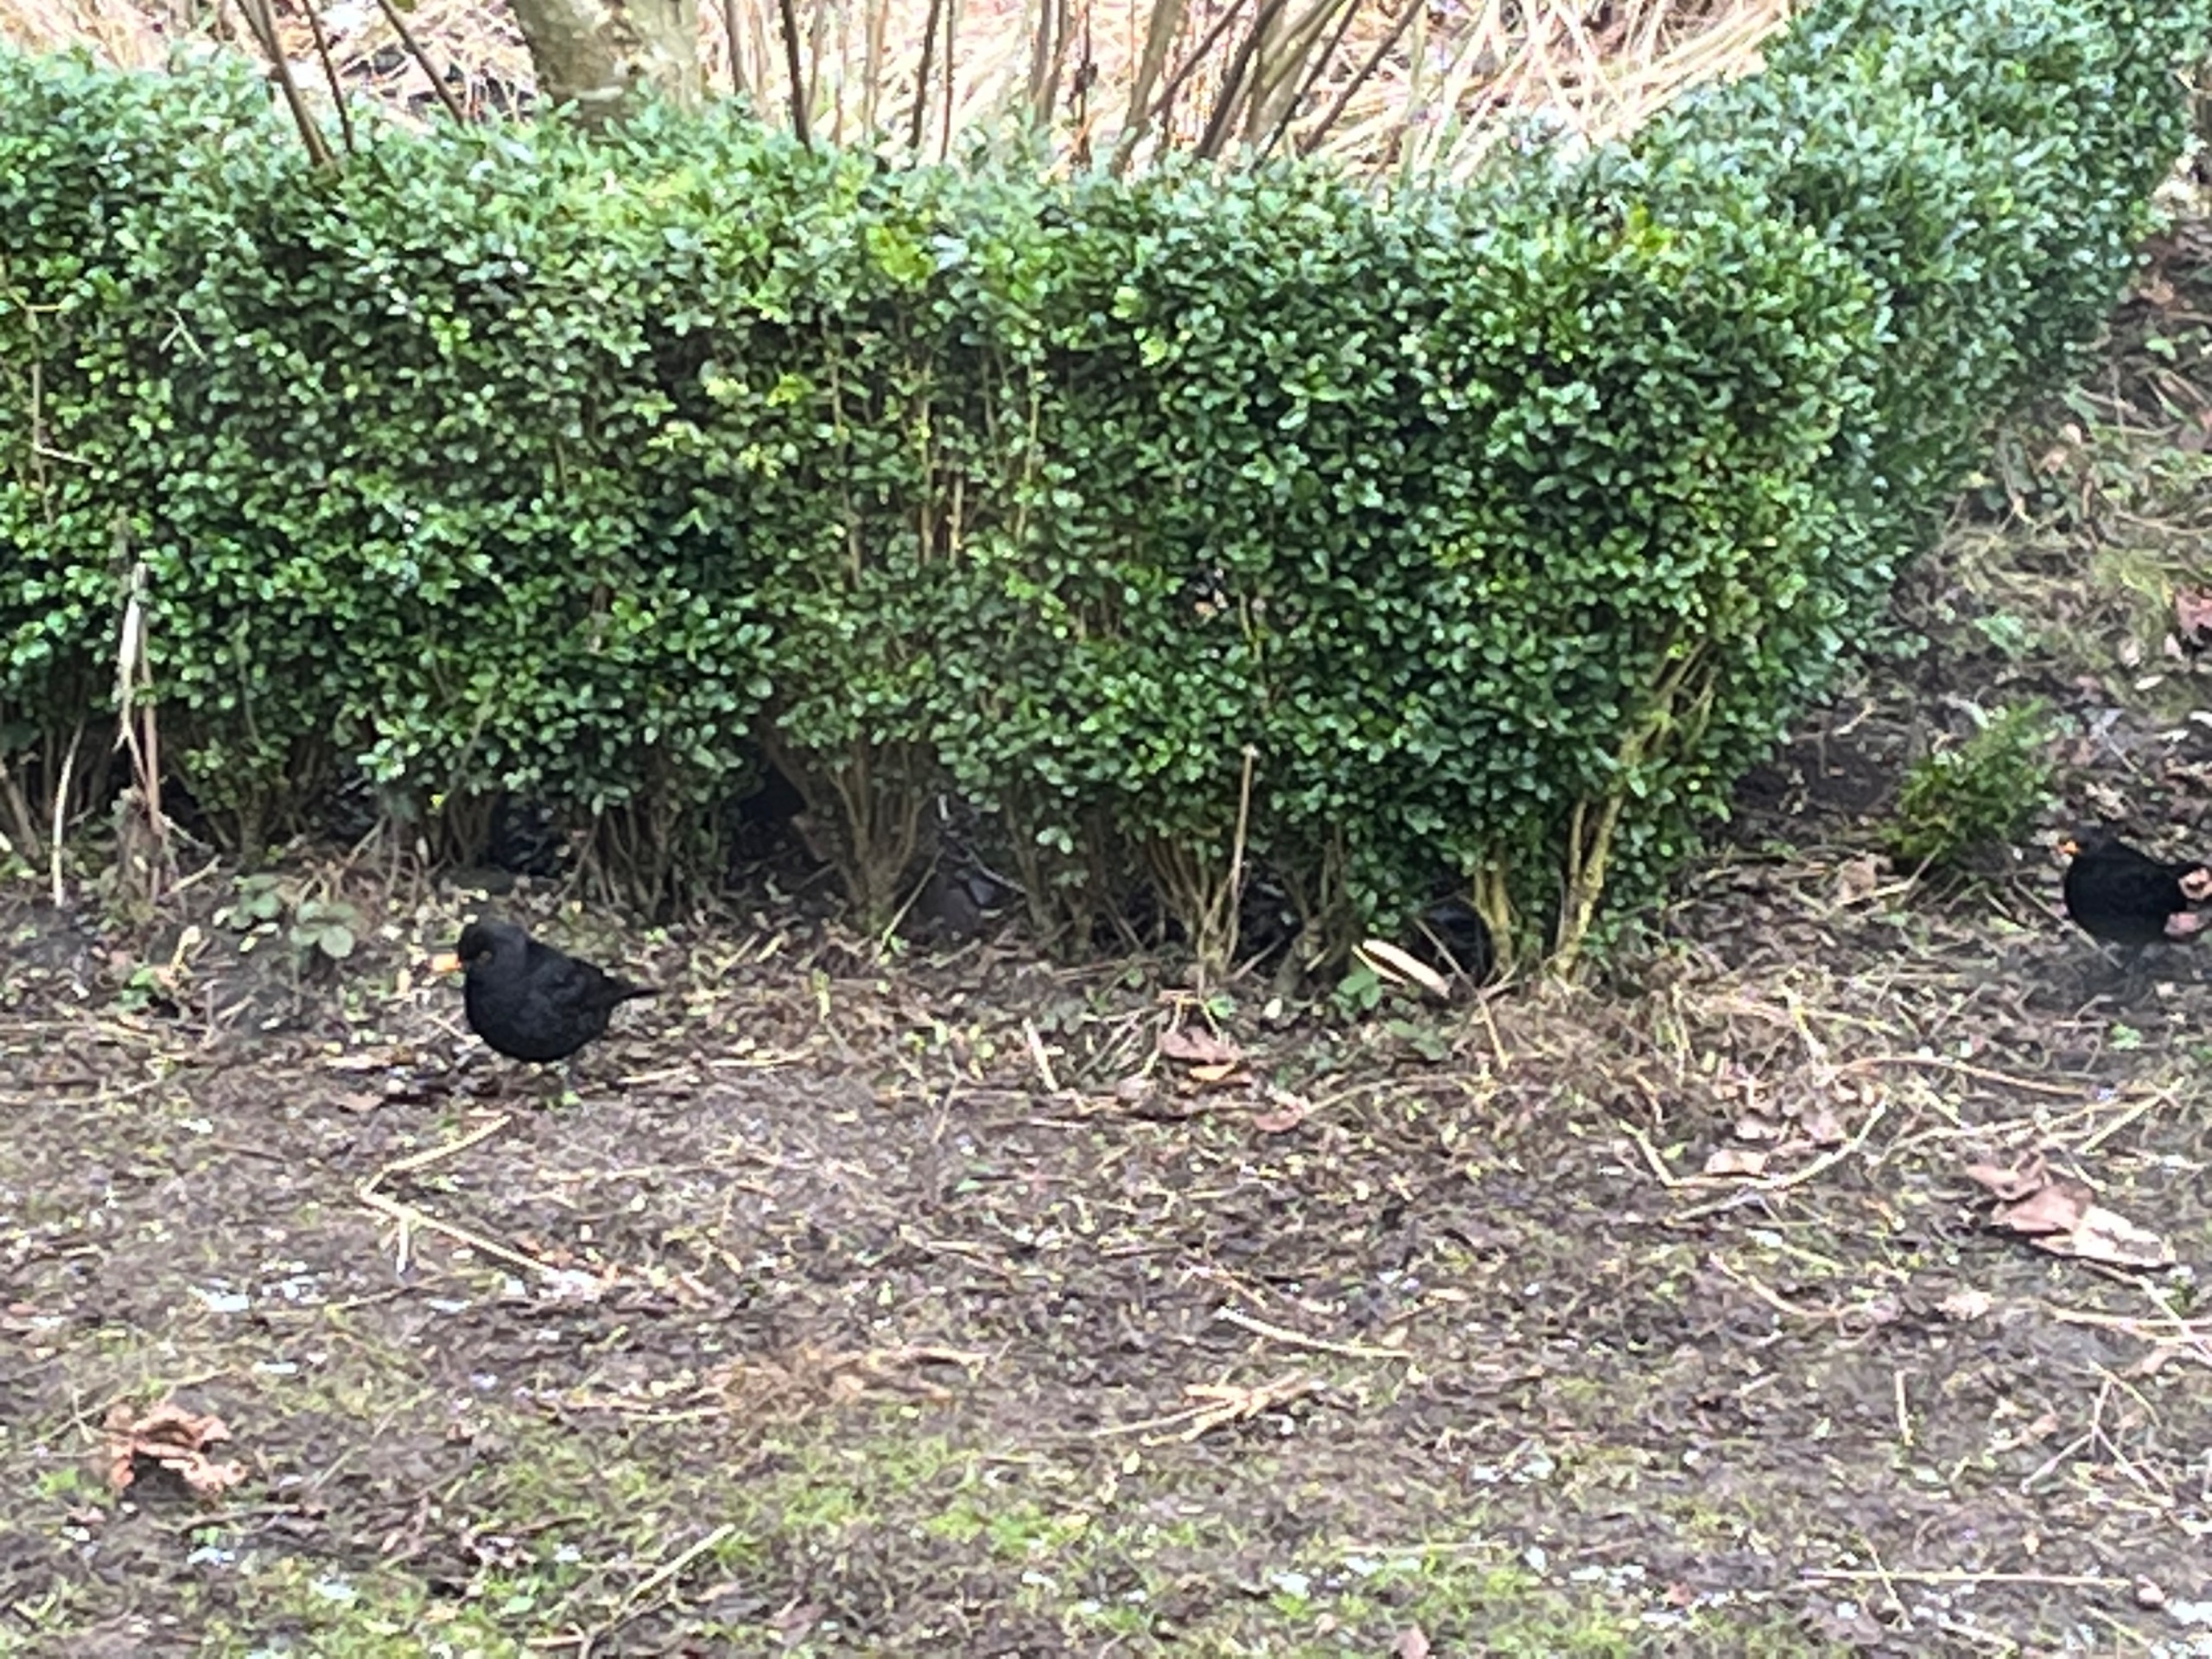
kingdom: Animalia
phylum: Chordata
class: Aves
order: Passeriformes
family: Turdidae
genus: Turdus
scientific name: Turdus merula
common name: Solsort
